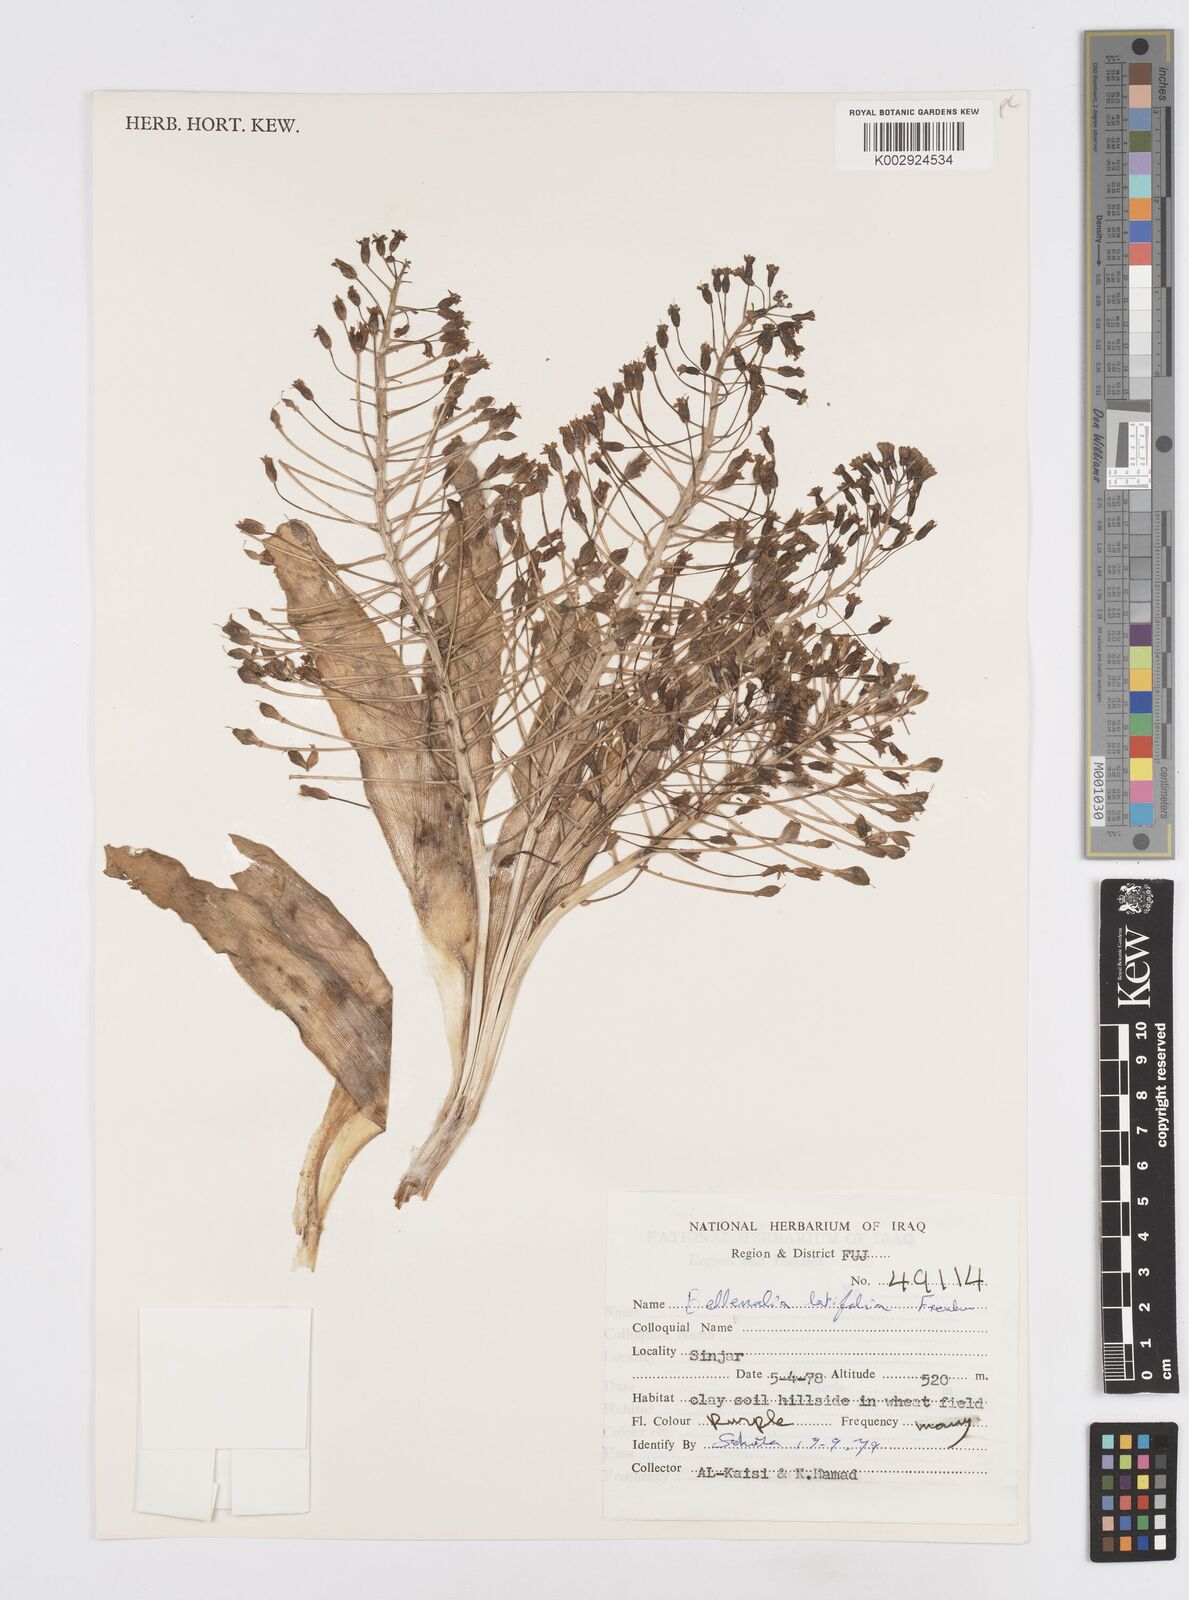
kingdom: Plantae
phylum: Tracheophyta
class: Liliopsida
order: Asparagales
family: Asparagaceae
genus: Bellevalia
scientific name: Bellevalia olivieri
